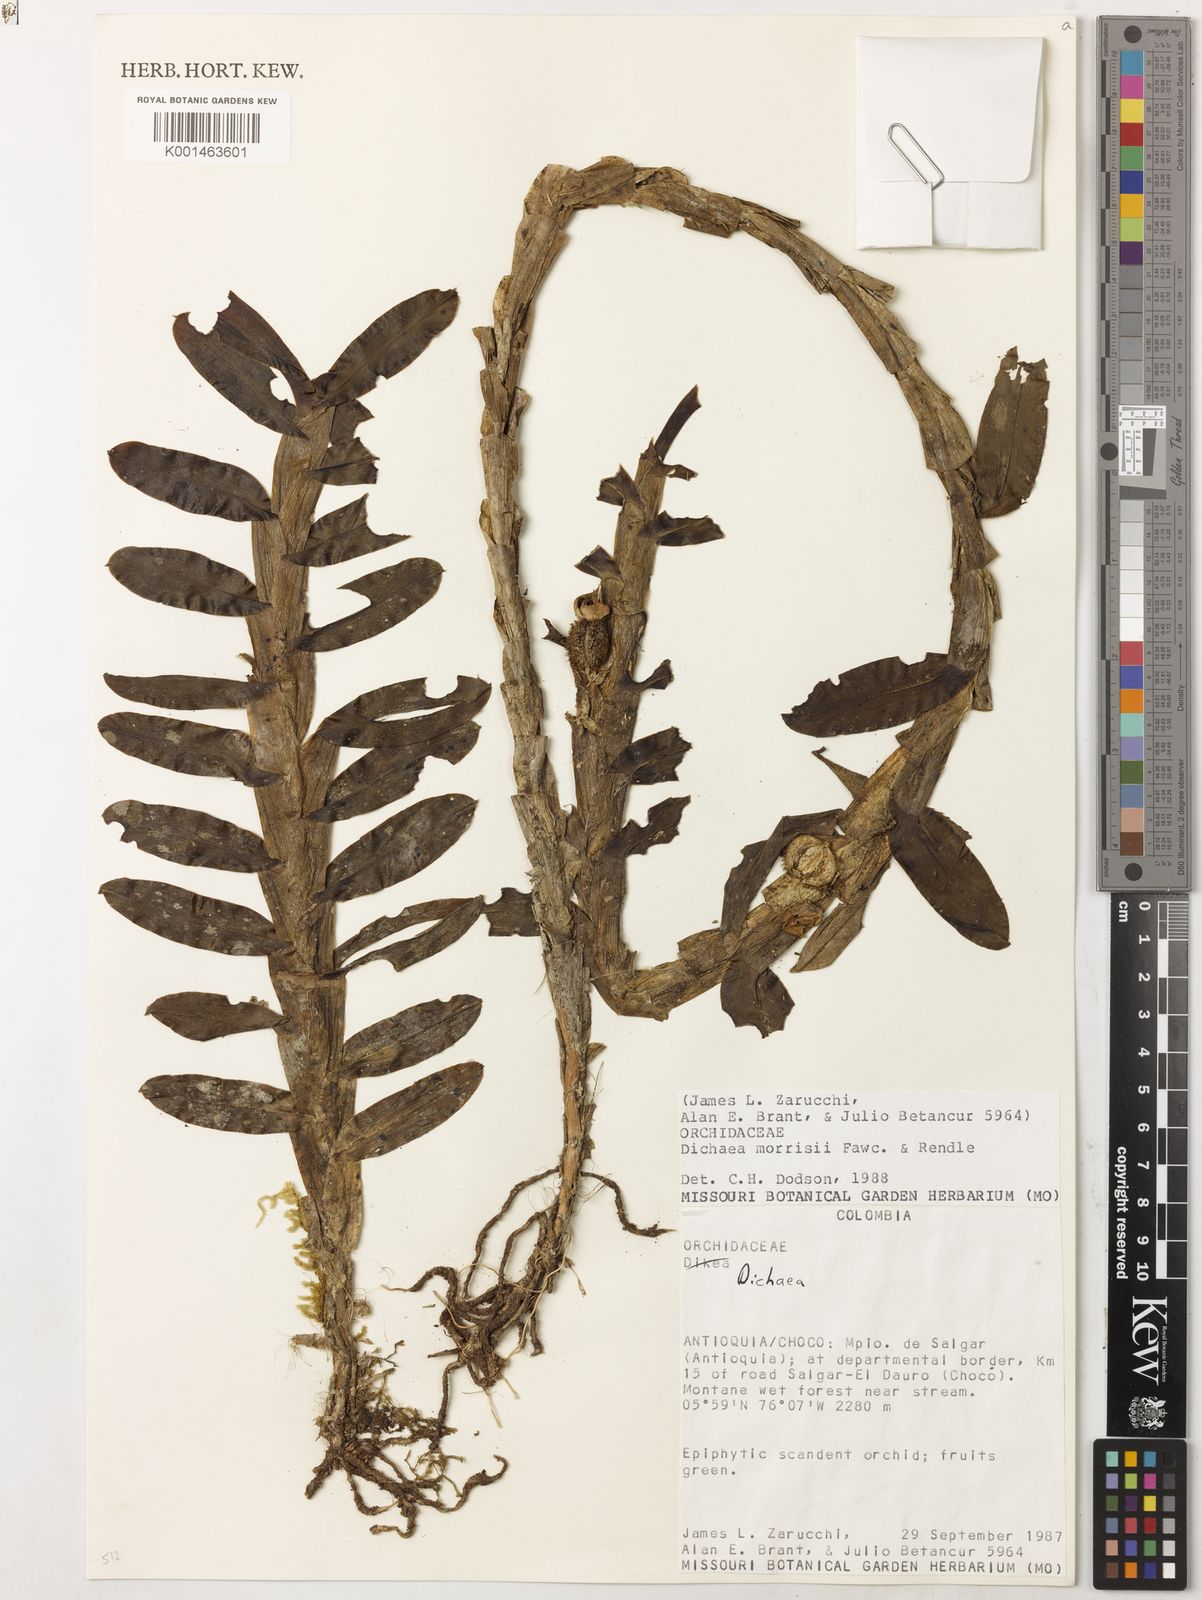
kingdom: Plantae
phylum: Tracheophyta
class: Liliopsida
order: Asparagales
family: Orchidaceae
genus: Dichaea
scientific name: Dichaea moritzii
